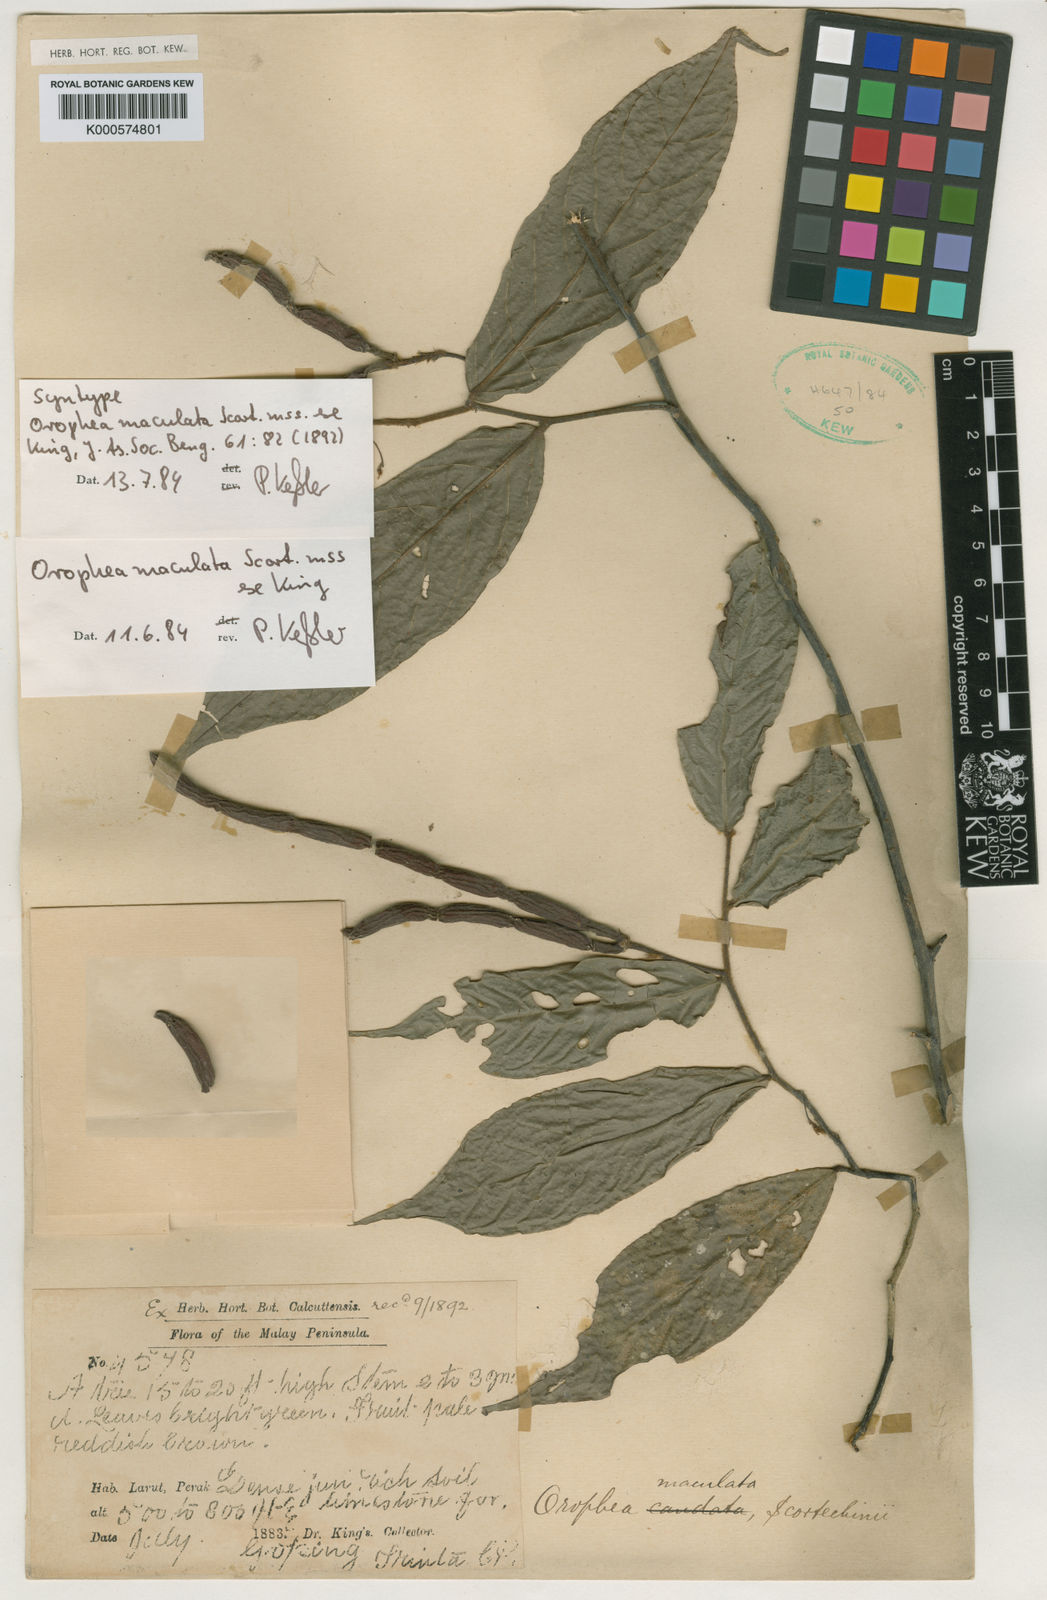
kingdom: Plantae
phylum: Tracheophyta
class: Magnoliopsida
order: Magnoliales
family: Annonaceae
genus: Orophea
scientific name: Orophea maculata
